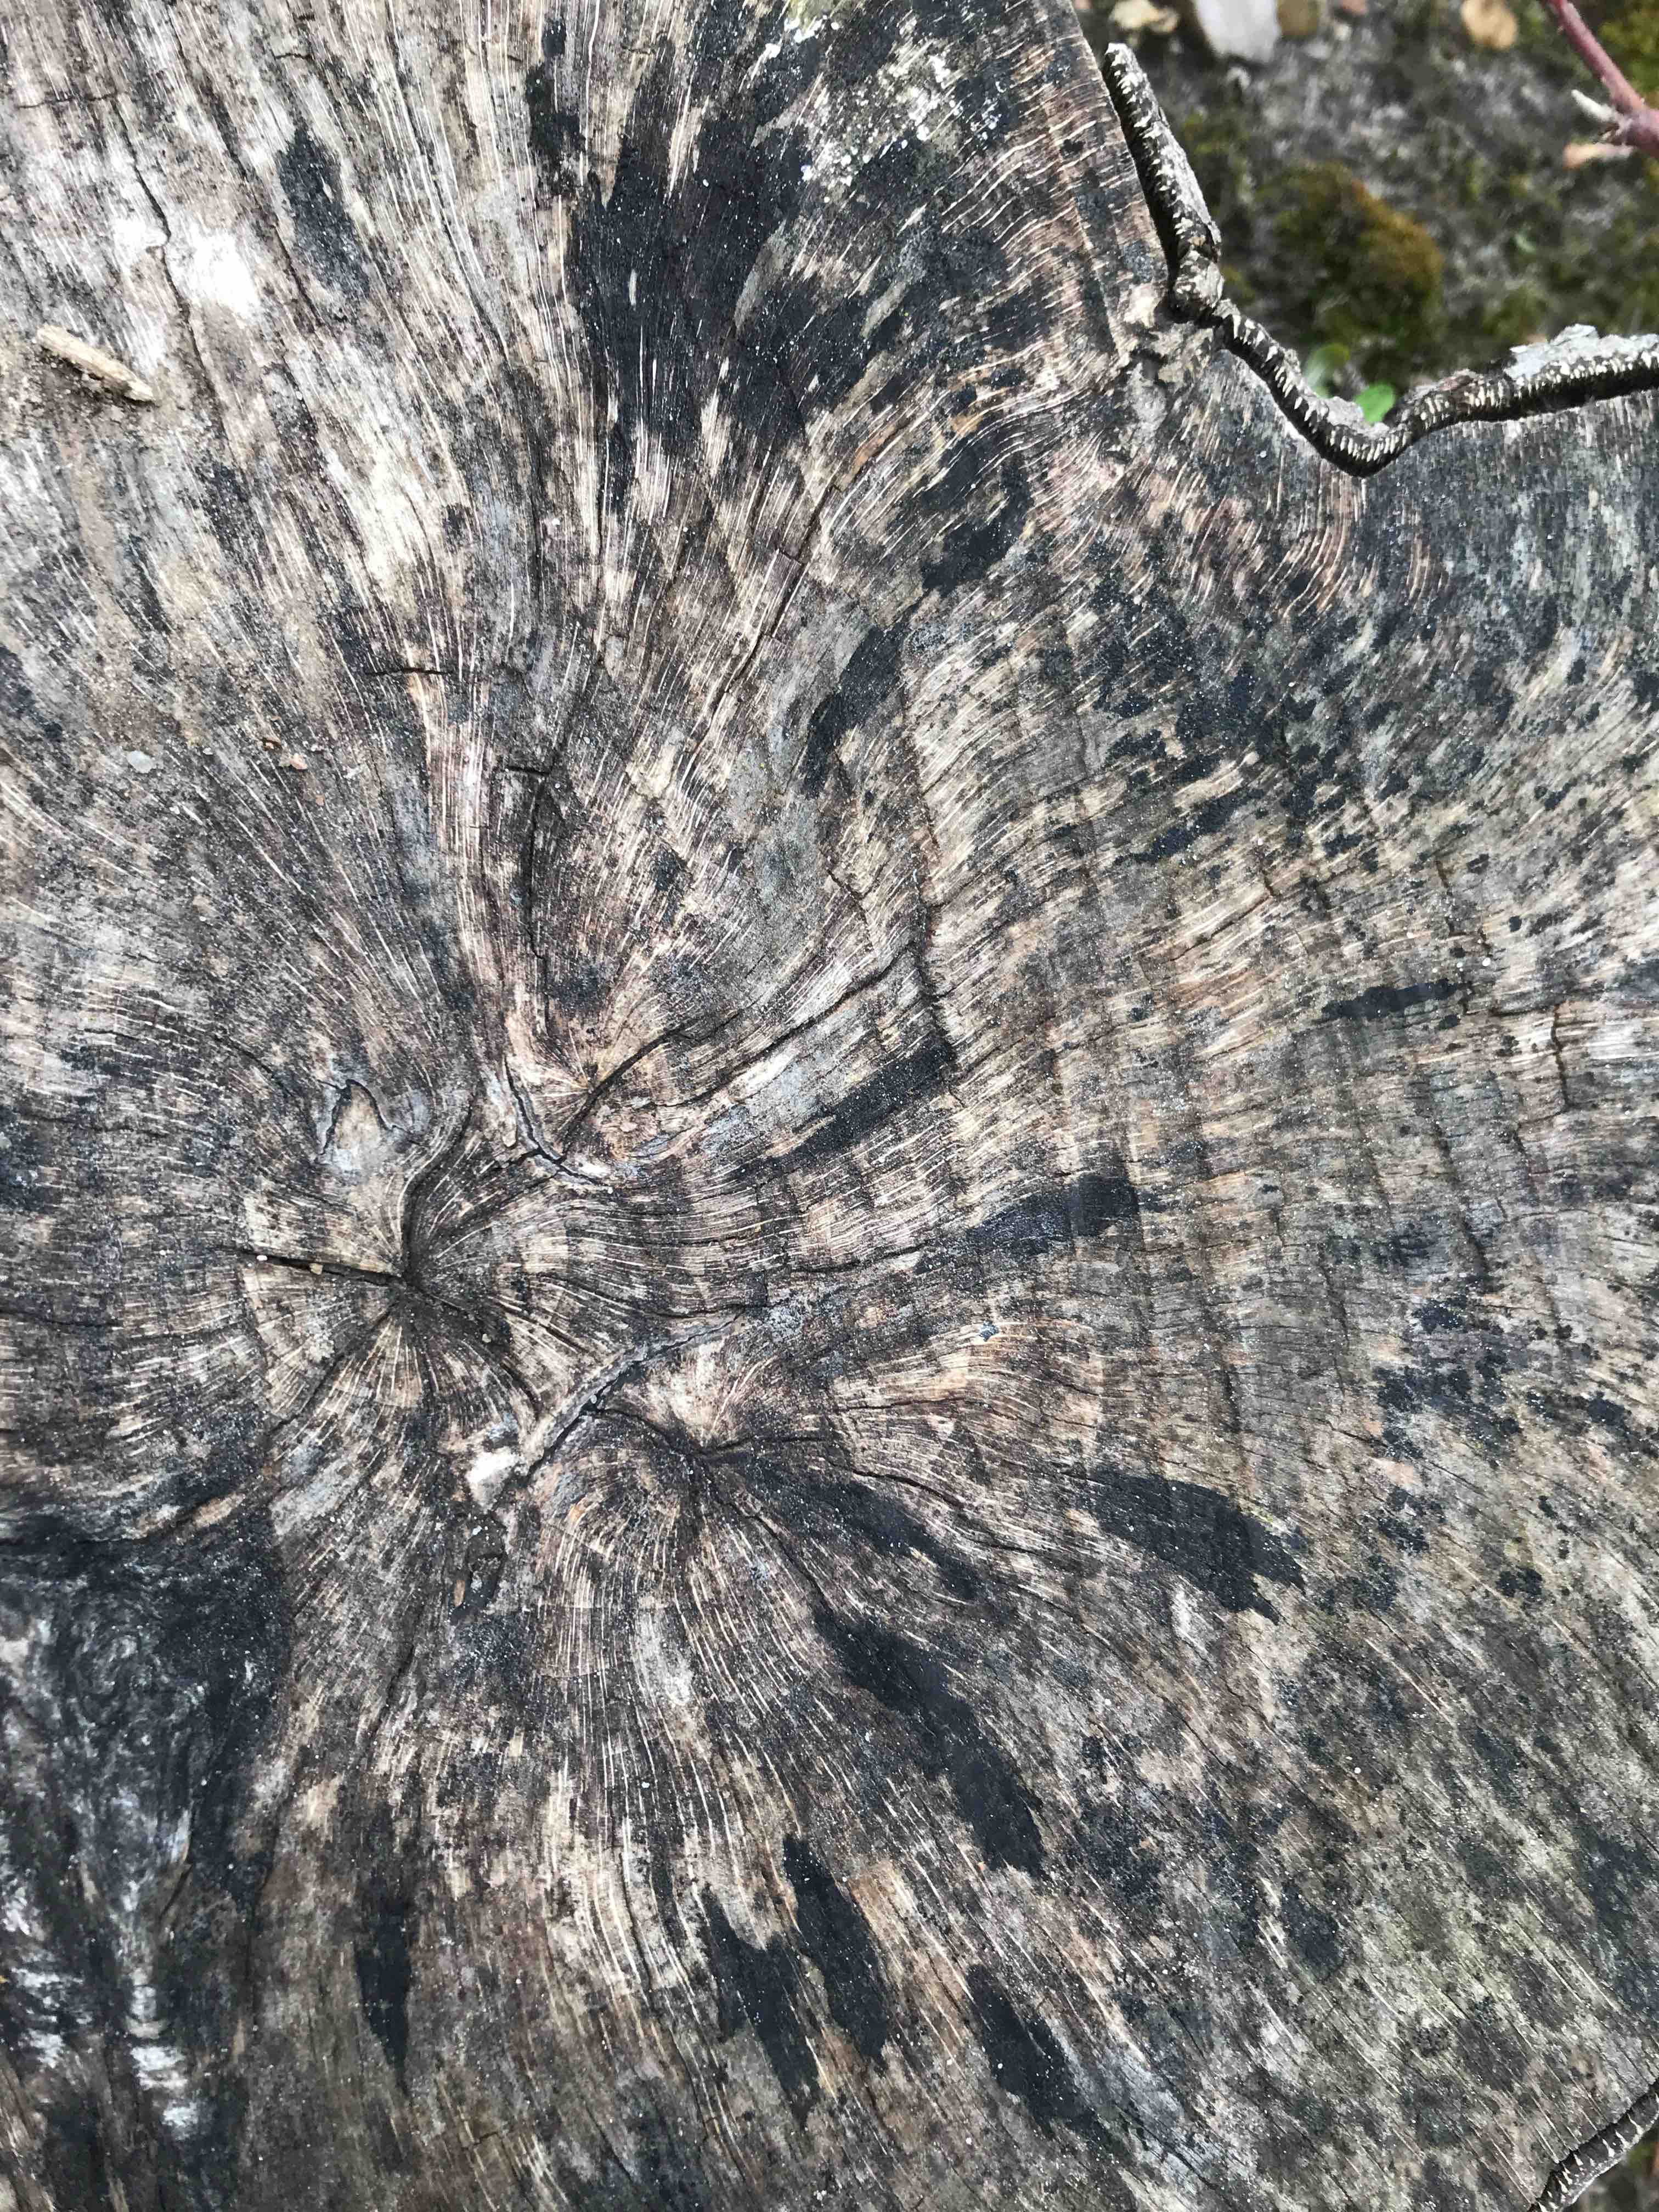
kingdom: Fungi
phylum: Ascomycota
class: Leotiomycetes
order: Helotiales
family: Helotiaceae
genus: Bispora
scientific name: Bispora pallescens
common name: måtte-snitskive
